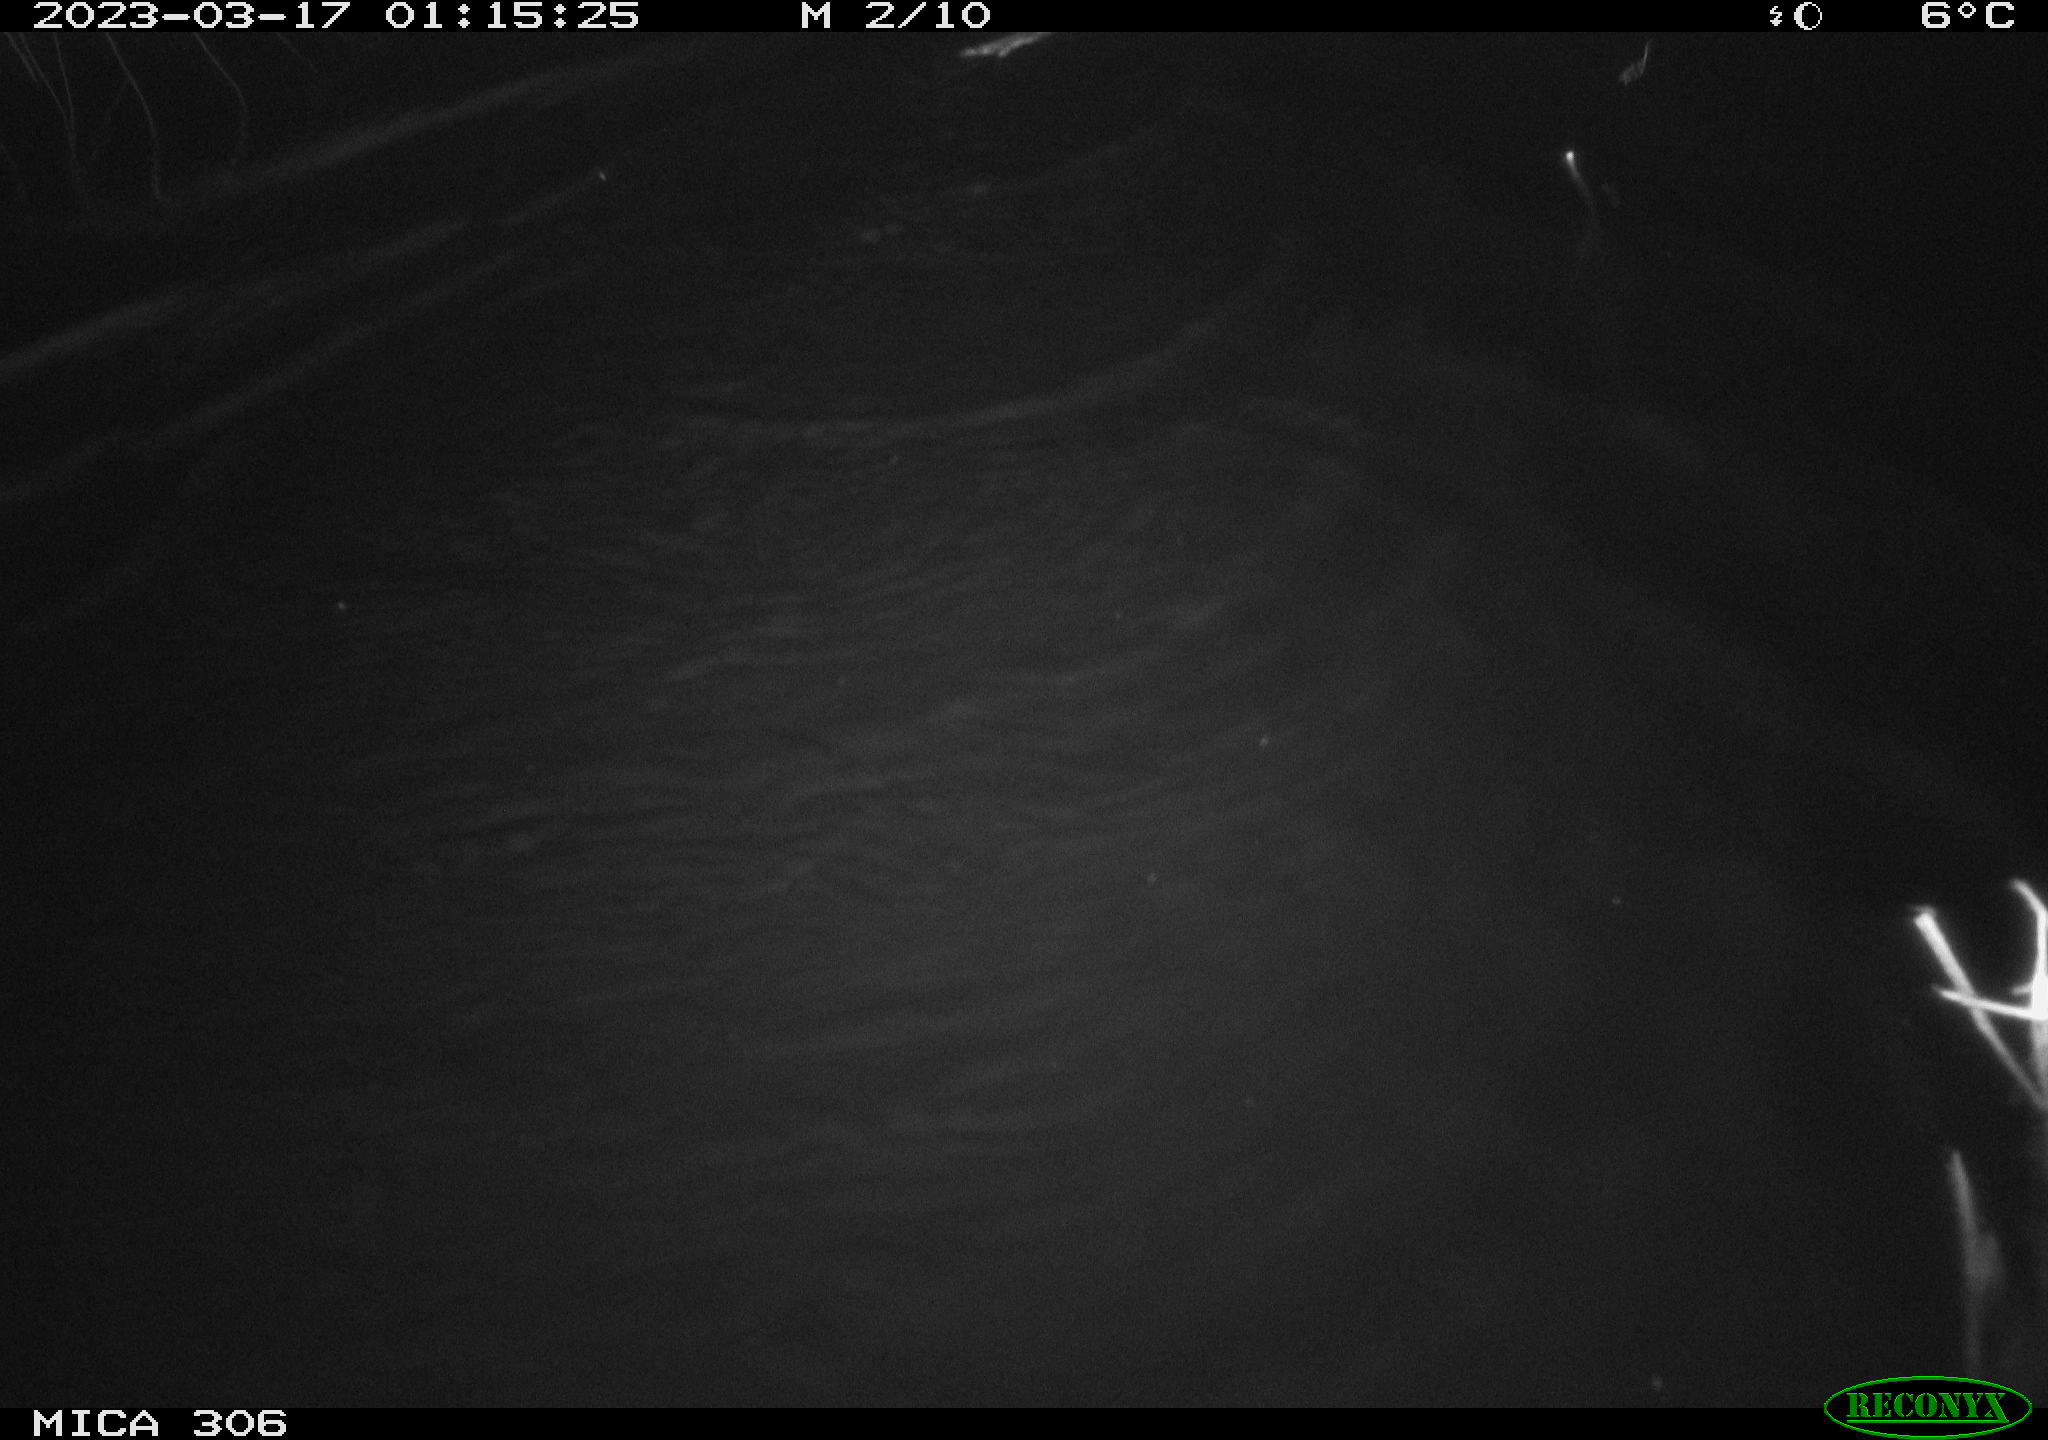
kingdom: Animalia
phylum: Chordata
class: Mammalia
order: Rodentia
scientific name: Rodentia
